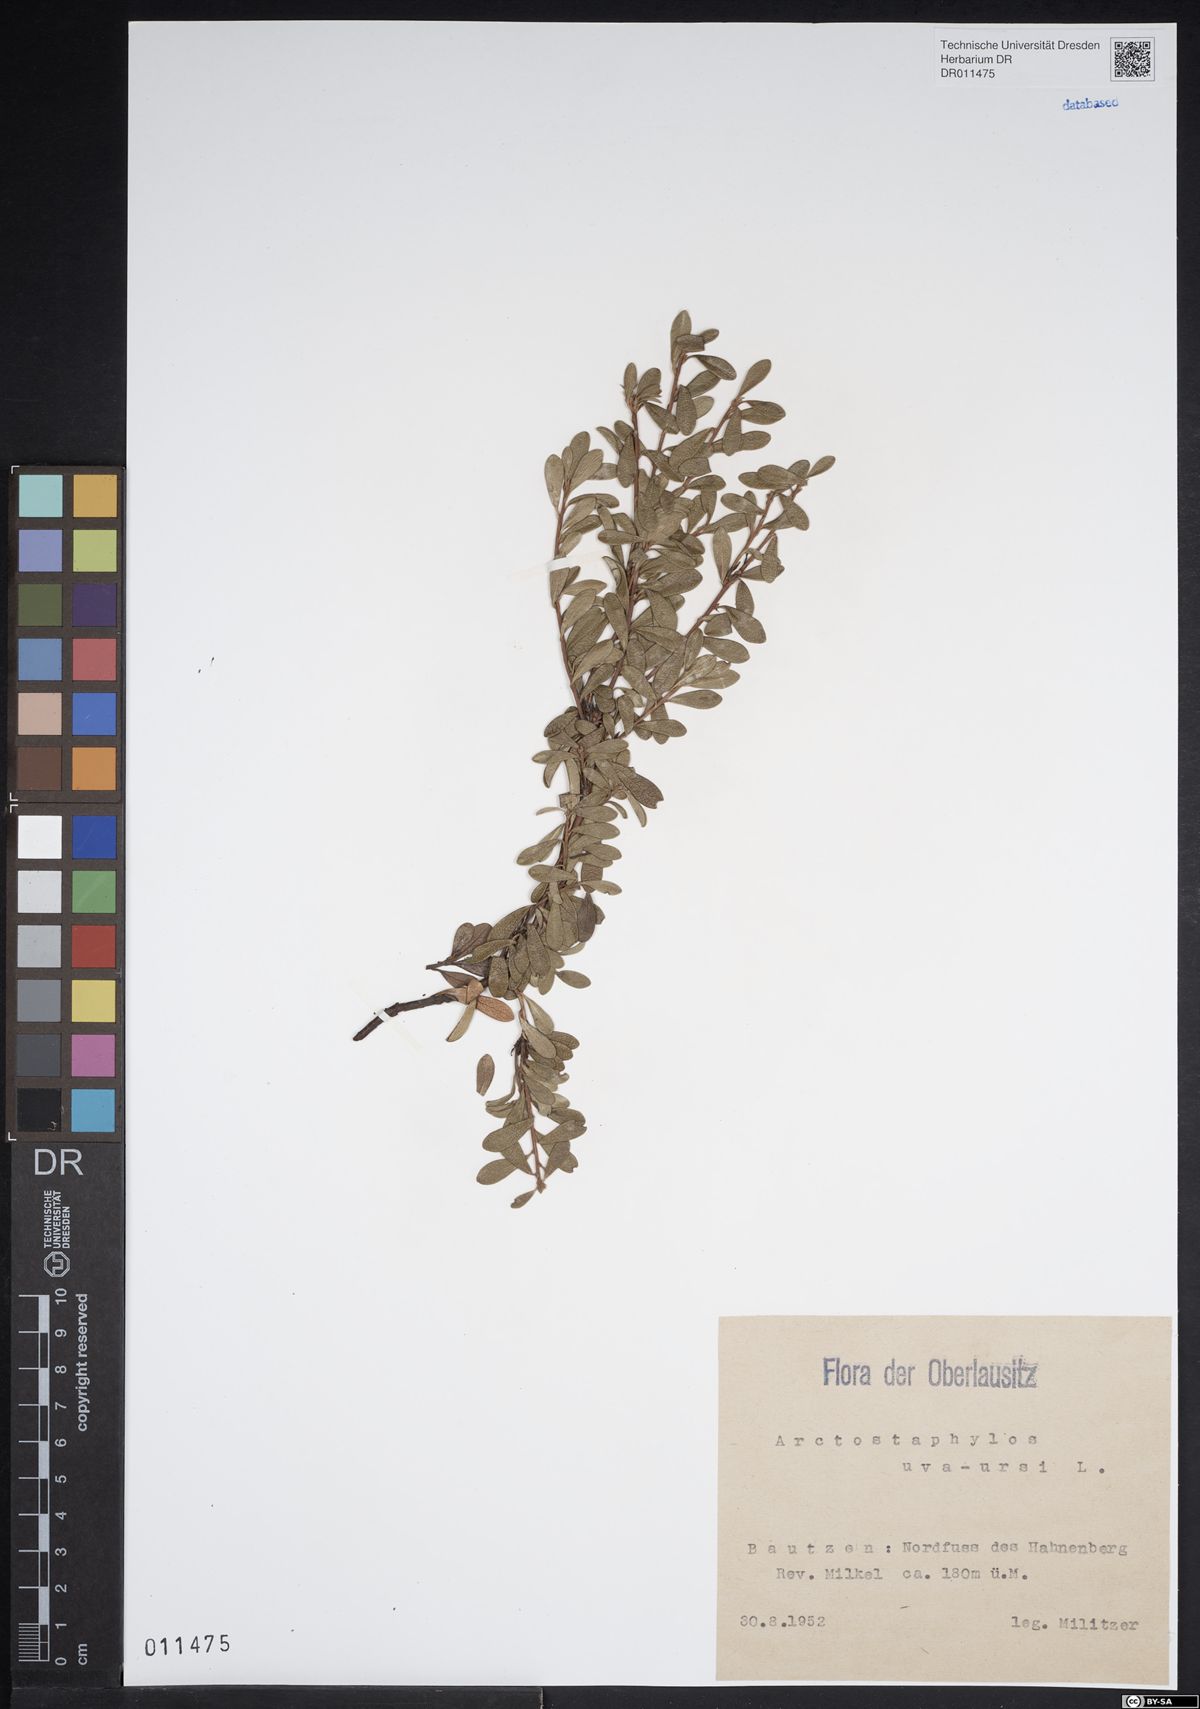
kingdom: Plantae
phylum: Tracheophyta
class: Magnoliopsida
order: Ericales
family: Ericaceae
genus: Arctostaphylos
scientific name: Arctostaphylos uva-ursi
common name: Bearberry
